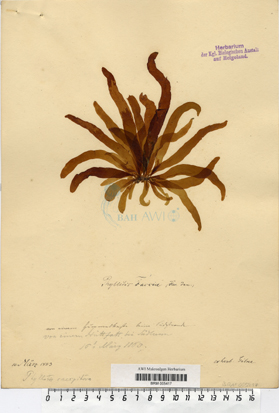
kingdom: Chromista
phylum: Ochrophyta
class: Phaeophyceae
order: Scytosiphonales
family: Scytosiphonaceae
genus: Petalonia
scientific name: Petalonia fascia
